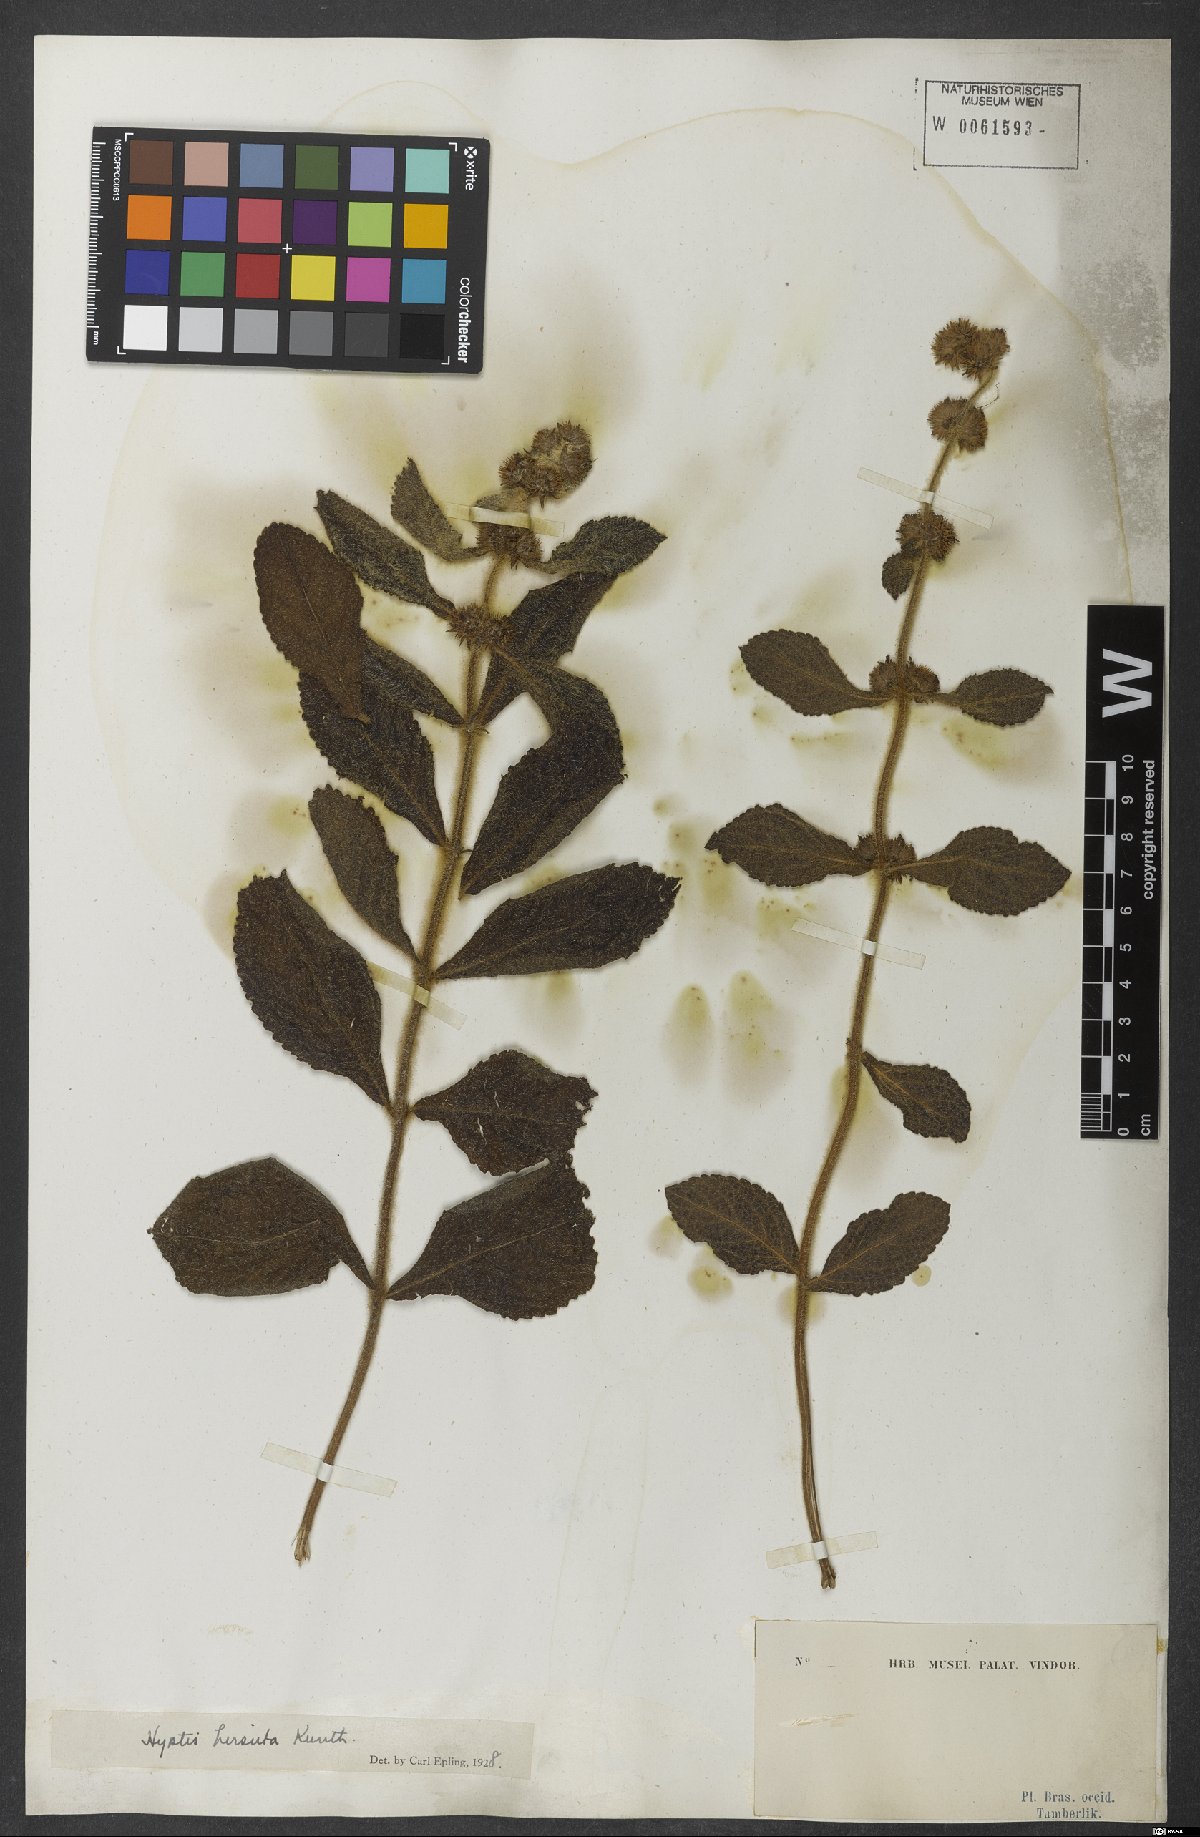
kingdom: Plantae
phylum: Tracheophyta
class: Magnoliopsida
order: Lamiales
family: Lamiaceae
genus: Hyptis
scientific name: Hyptis hirsuta
